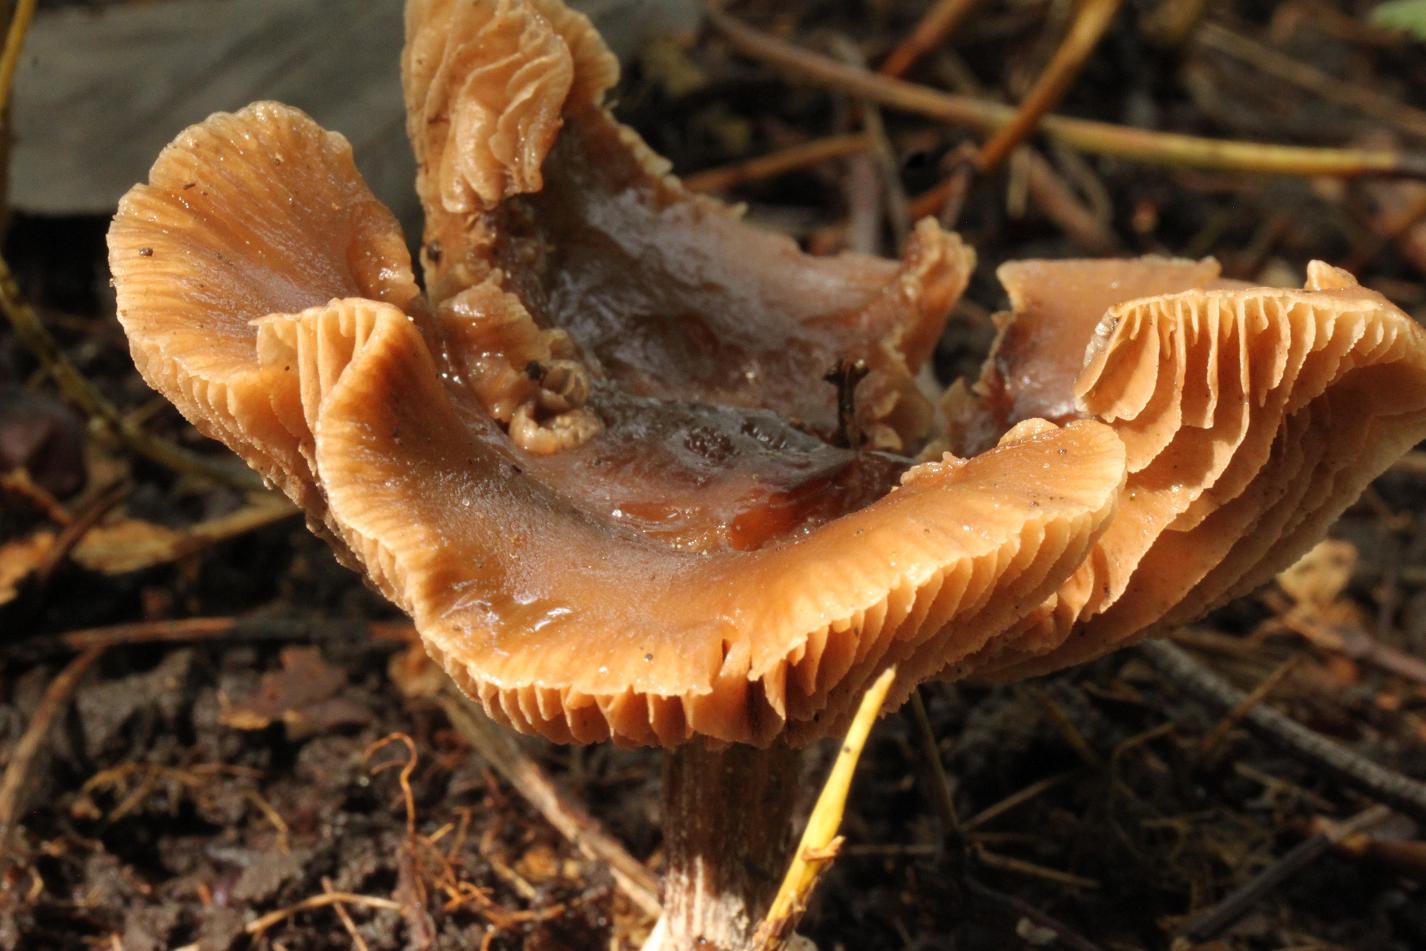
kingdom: Fungi
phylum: Basidiomycota
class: Agaricomycetes
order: Agaricales
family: Tubariaceae
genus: Cyclocybe
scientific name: Cyclocybe erebia
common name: mørk agerhat
